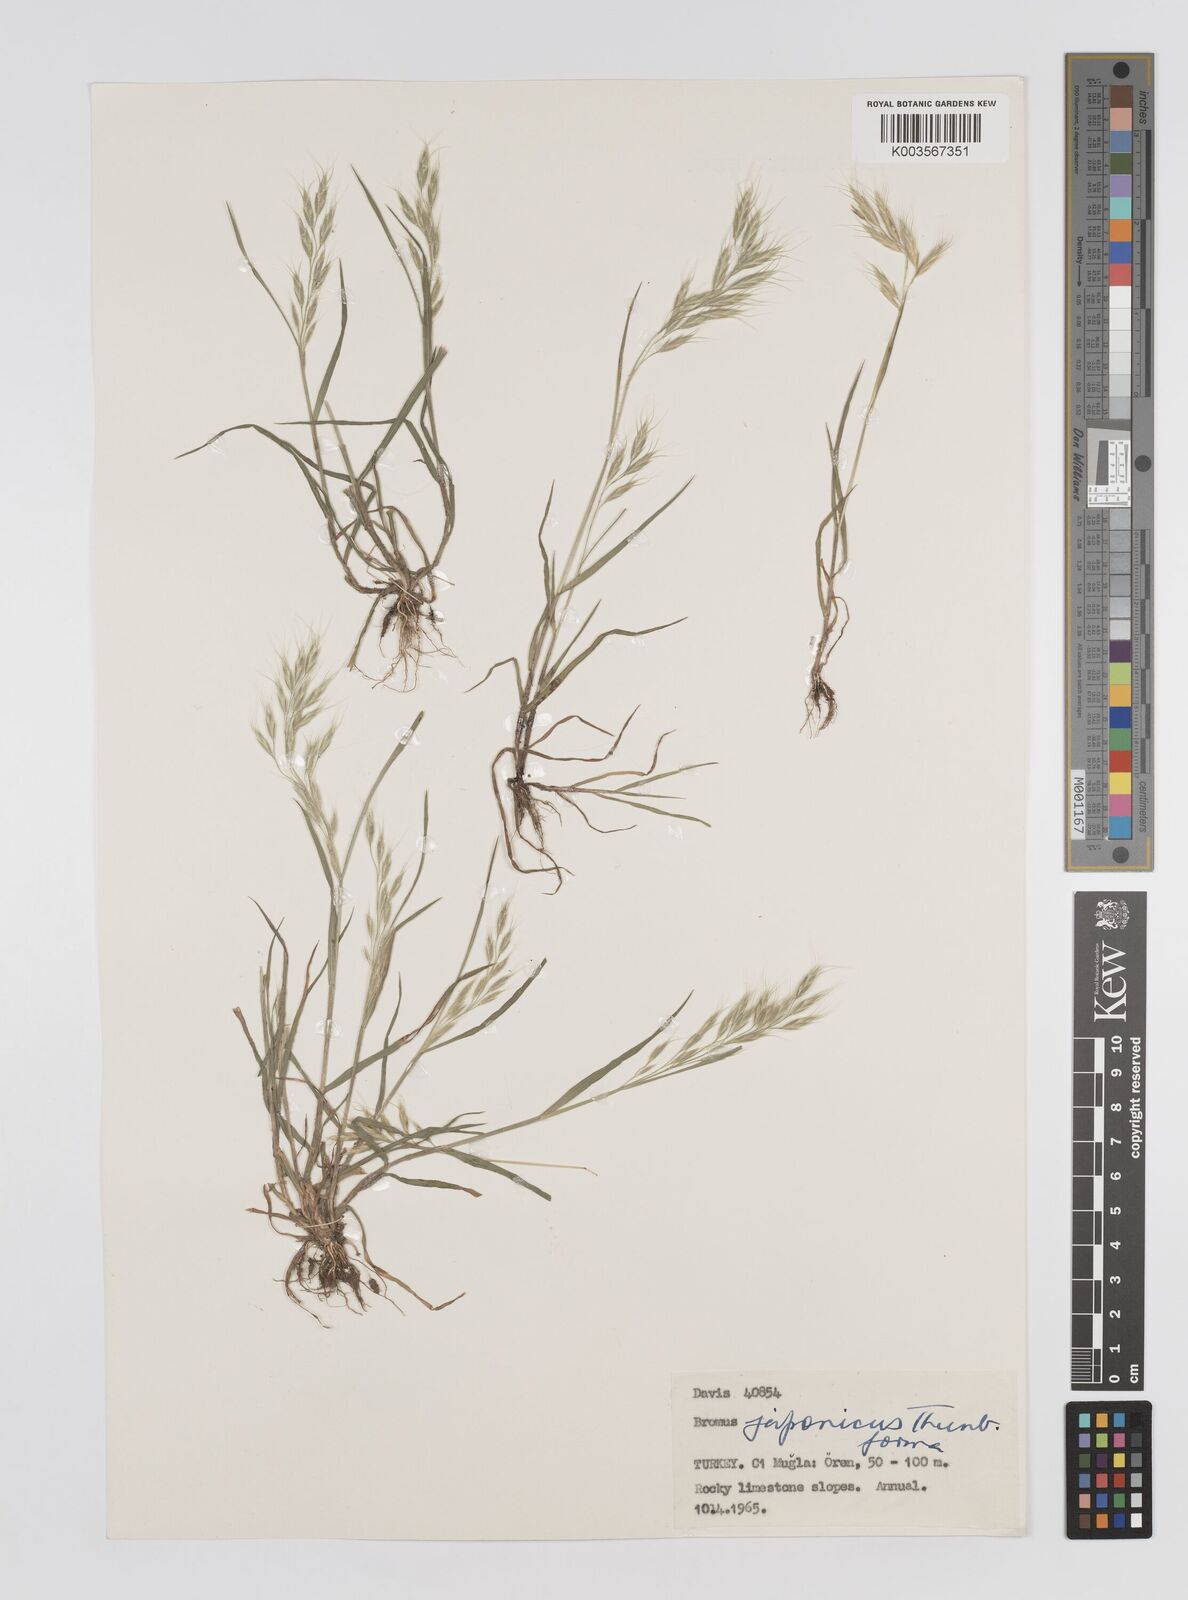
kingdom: Plantae
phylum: Tracheophyta
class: Liliopsida
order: Poales
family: Poaceae
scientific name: Poaceae
